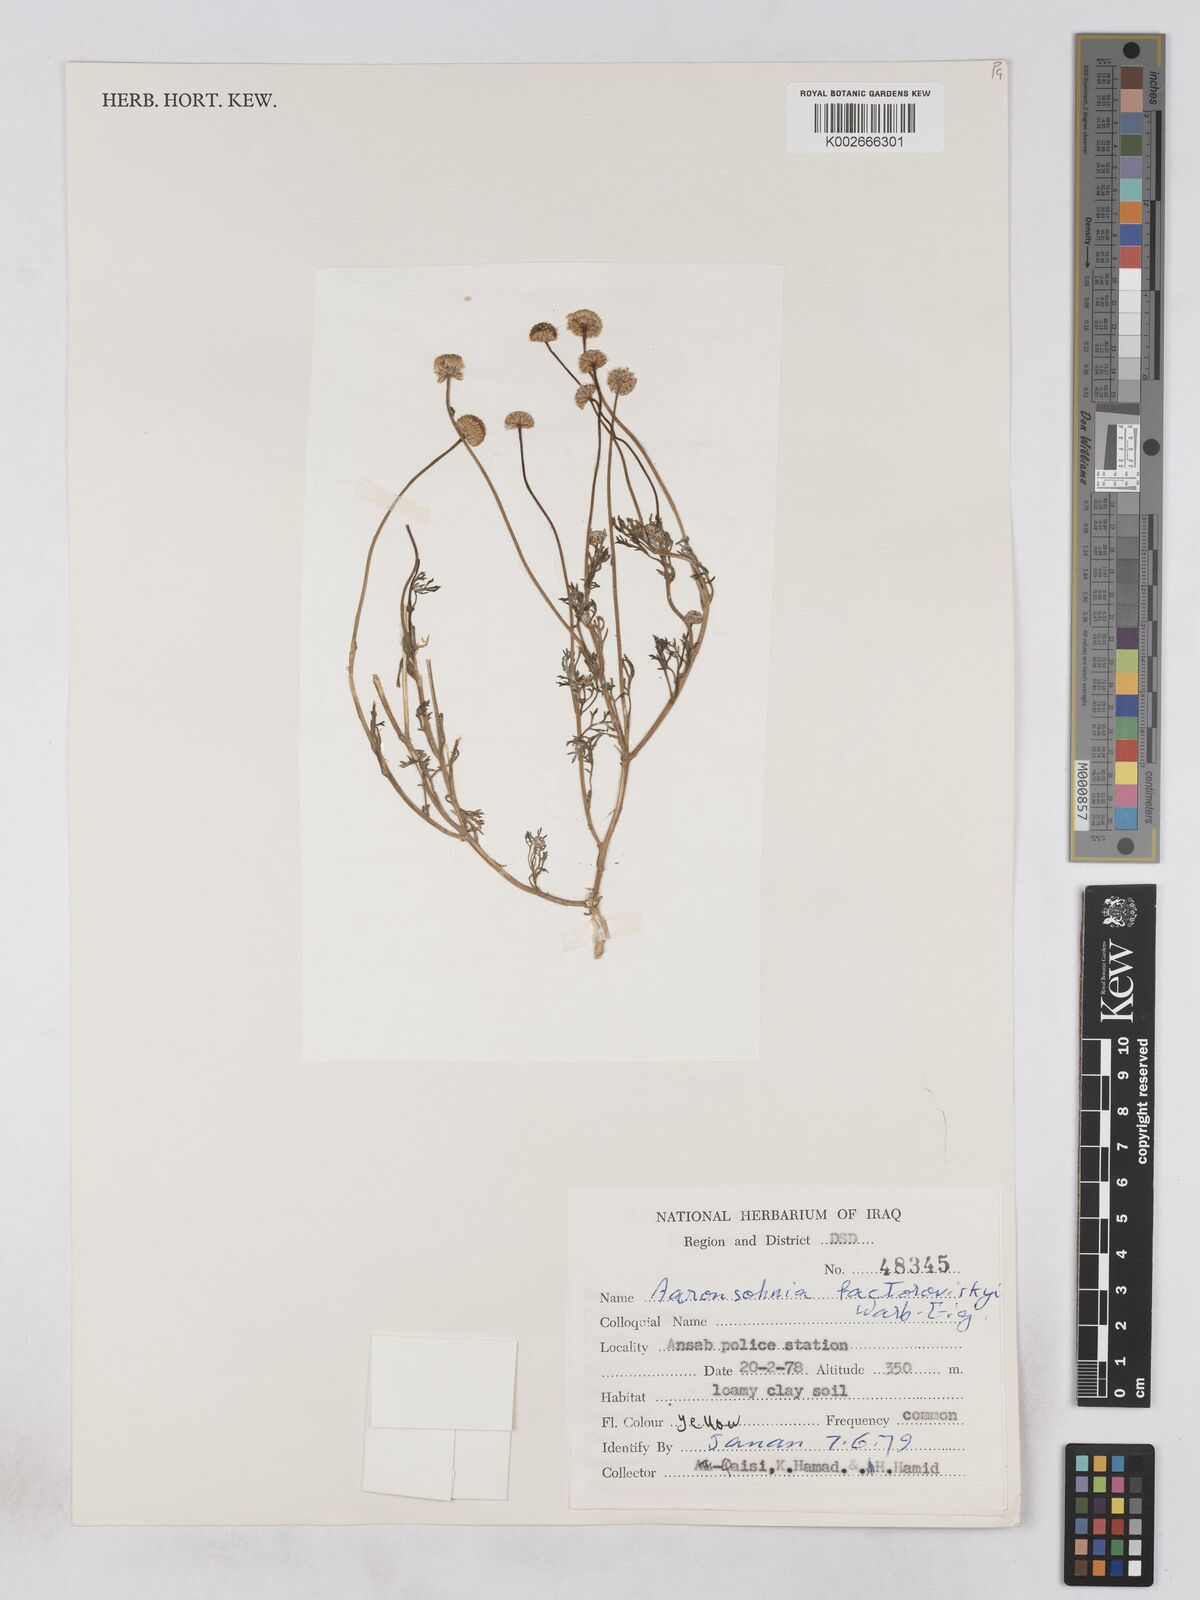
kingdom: Plantae
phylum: Tracheophyta
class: Magnoliopsida
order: Asterales
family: Asteraceae
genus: Otoglyphis
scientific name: Otoglyphis factorovskyi
